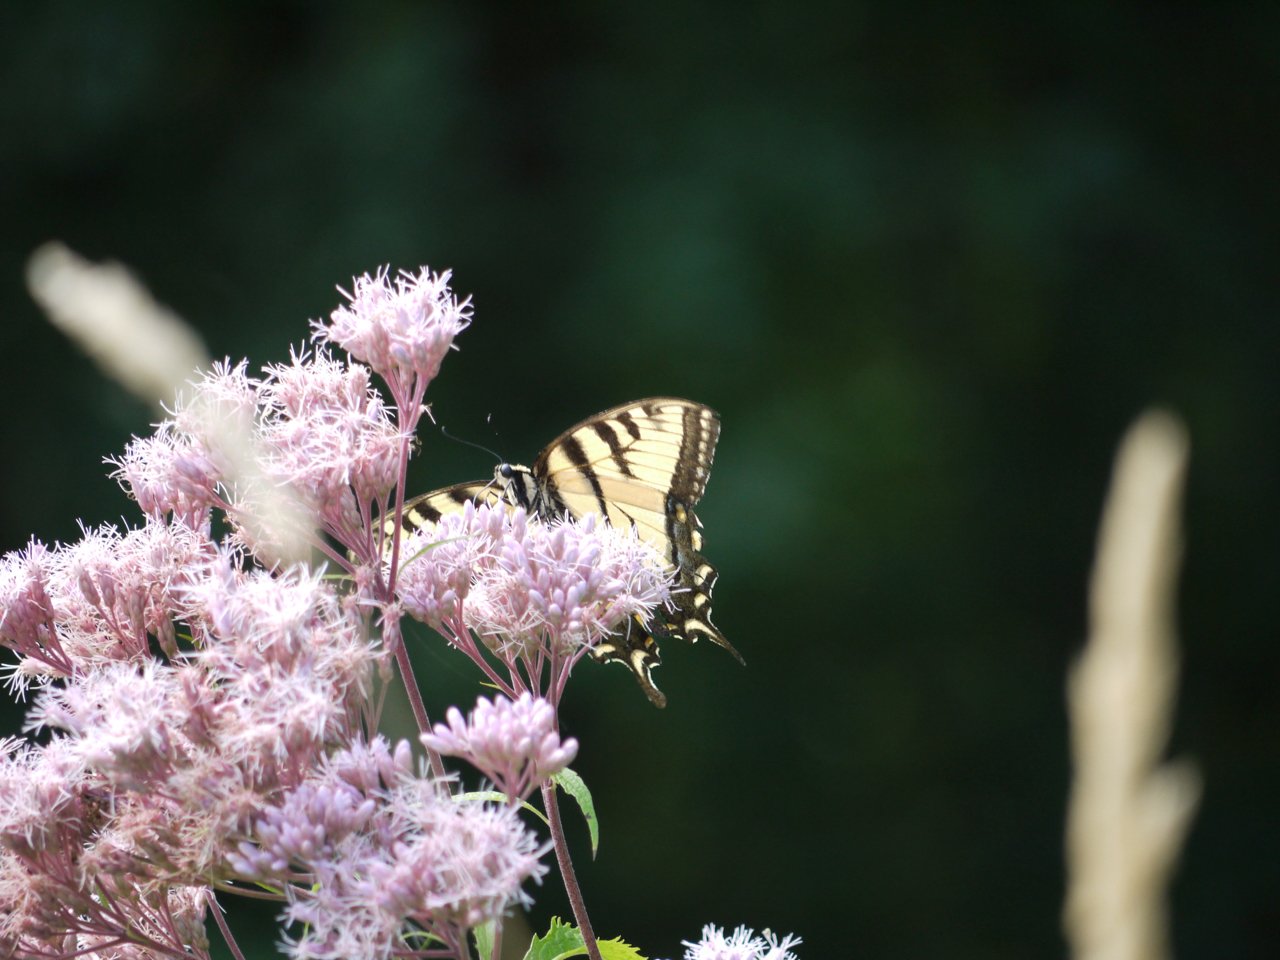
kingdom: Animalia
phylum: Arthropoda
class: Insecta
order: Lepidoptera
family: Papilionidae
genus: Pterourus
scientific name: Pterourus glaucus
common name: Eastern Tiger Swallowtail
